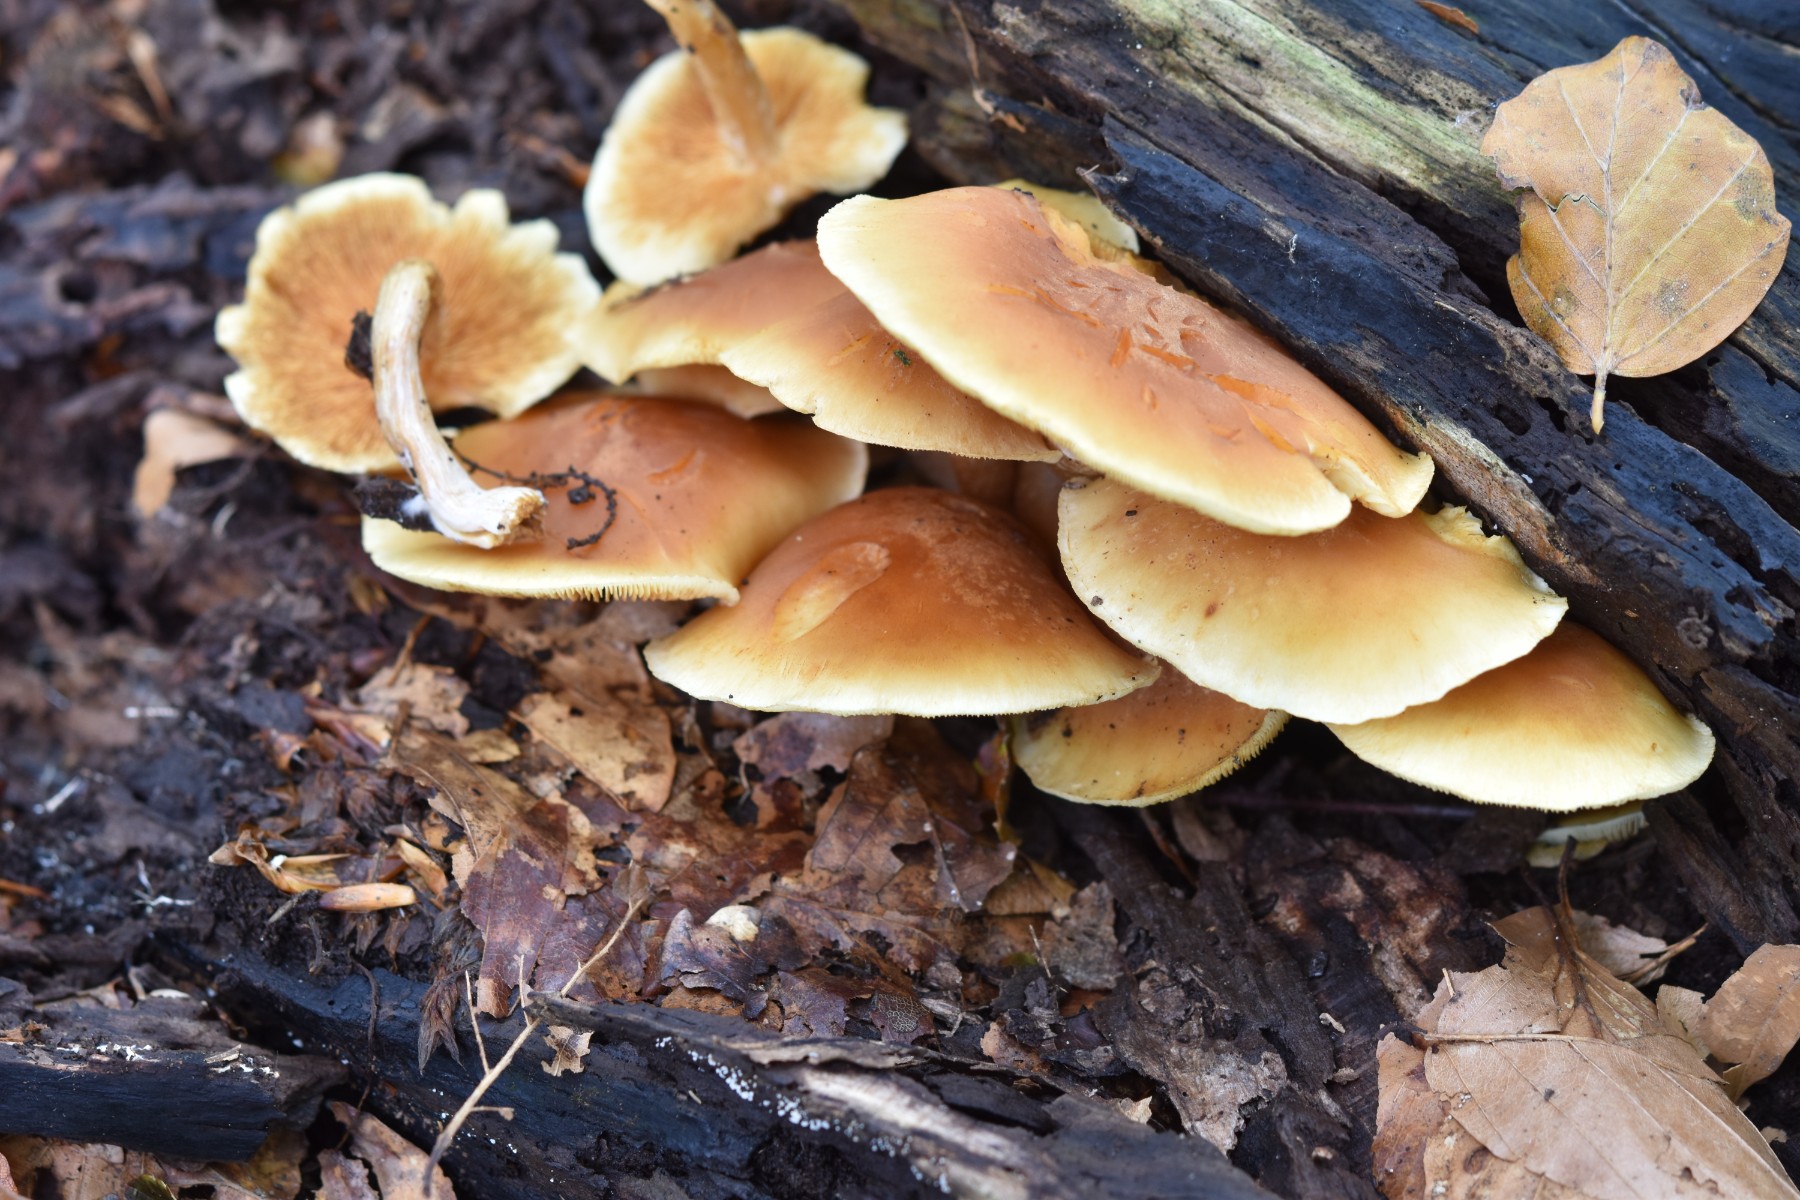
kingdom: Fungi
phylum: Basidiomycota
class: Agaricomycetes
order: Agaricales
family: Hymenogastraceae
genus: Gymnopilus
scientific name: Gymnopilus penetrans
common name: plettet flammehat
